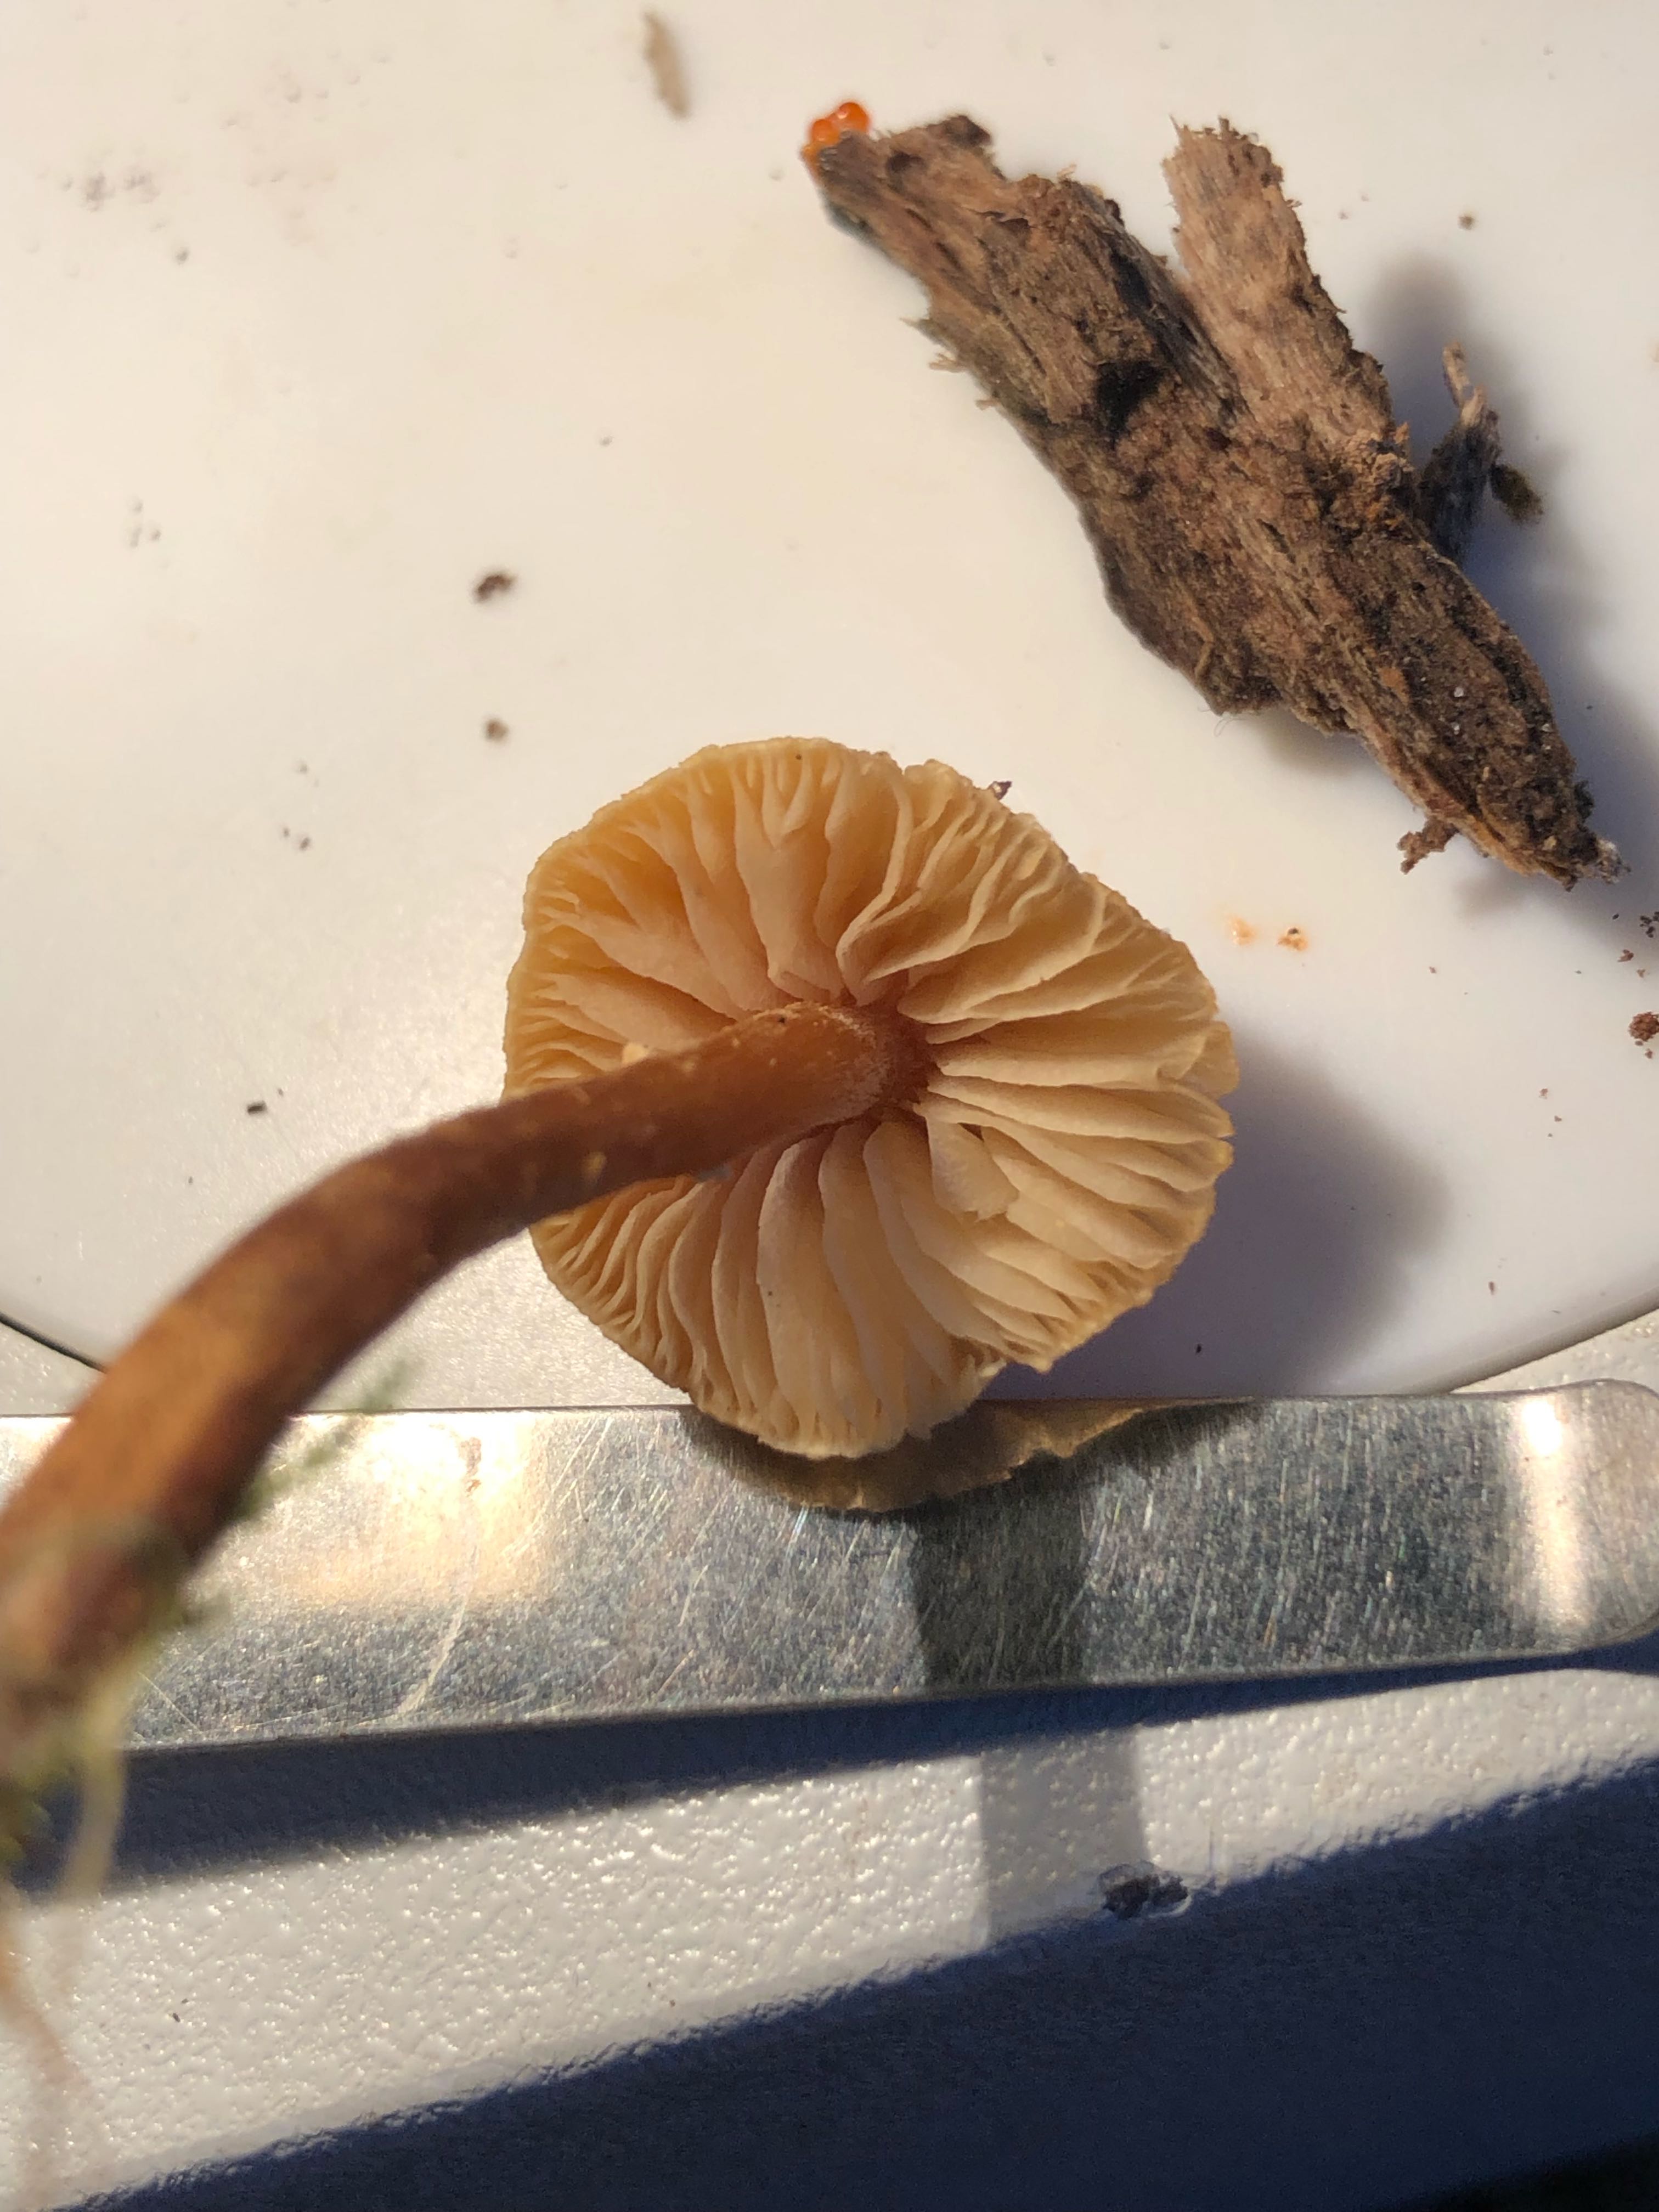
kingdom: Fungi
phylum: Basidiomycota
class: Agaricomycetes
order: Agaricales
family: Tricholomataceae
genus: Cystoderma
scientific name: Cystoderma jasonis
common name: gulkødet grynhat
